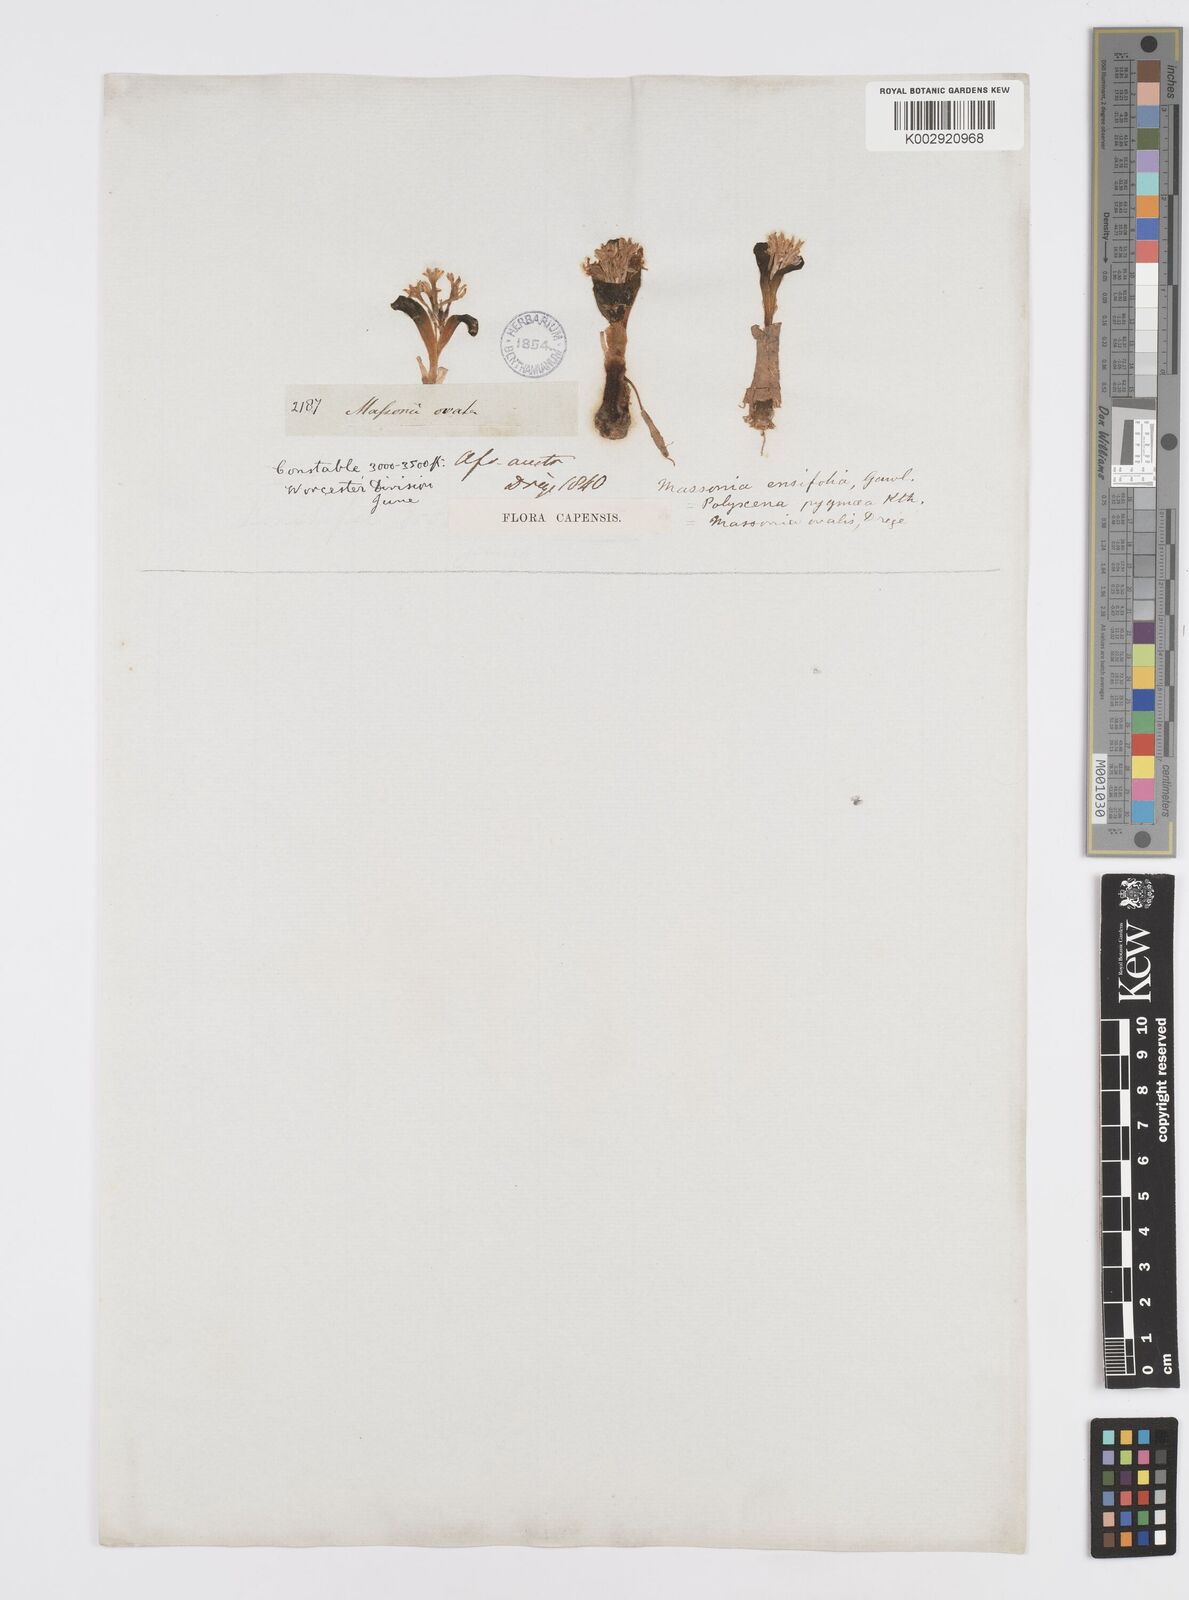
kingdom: Plantae
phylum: Tracheophyta
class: Liliopsida
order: Asparagales
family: Asparagaceae
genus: Lachenalia
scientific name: Lachenalia ensifolia
